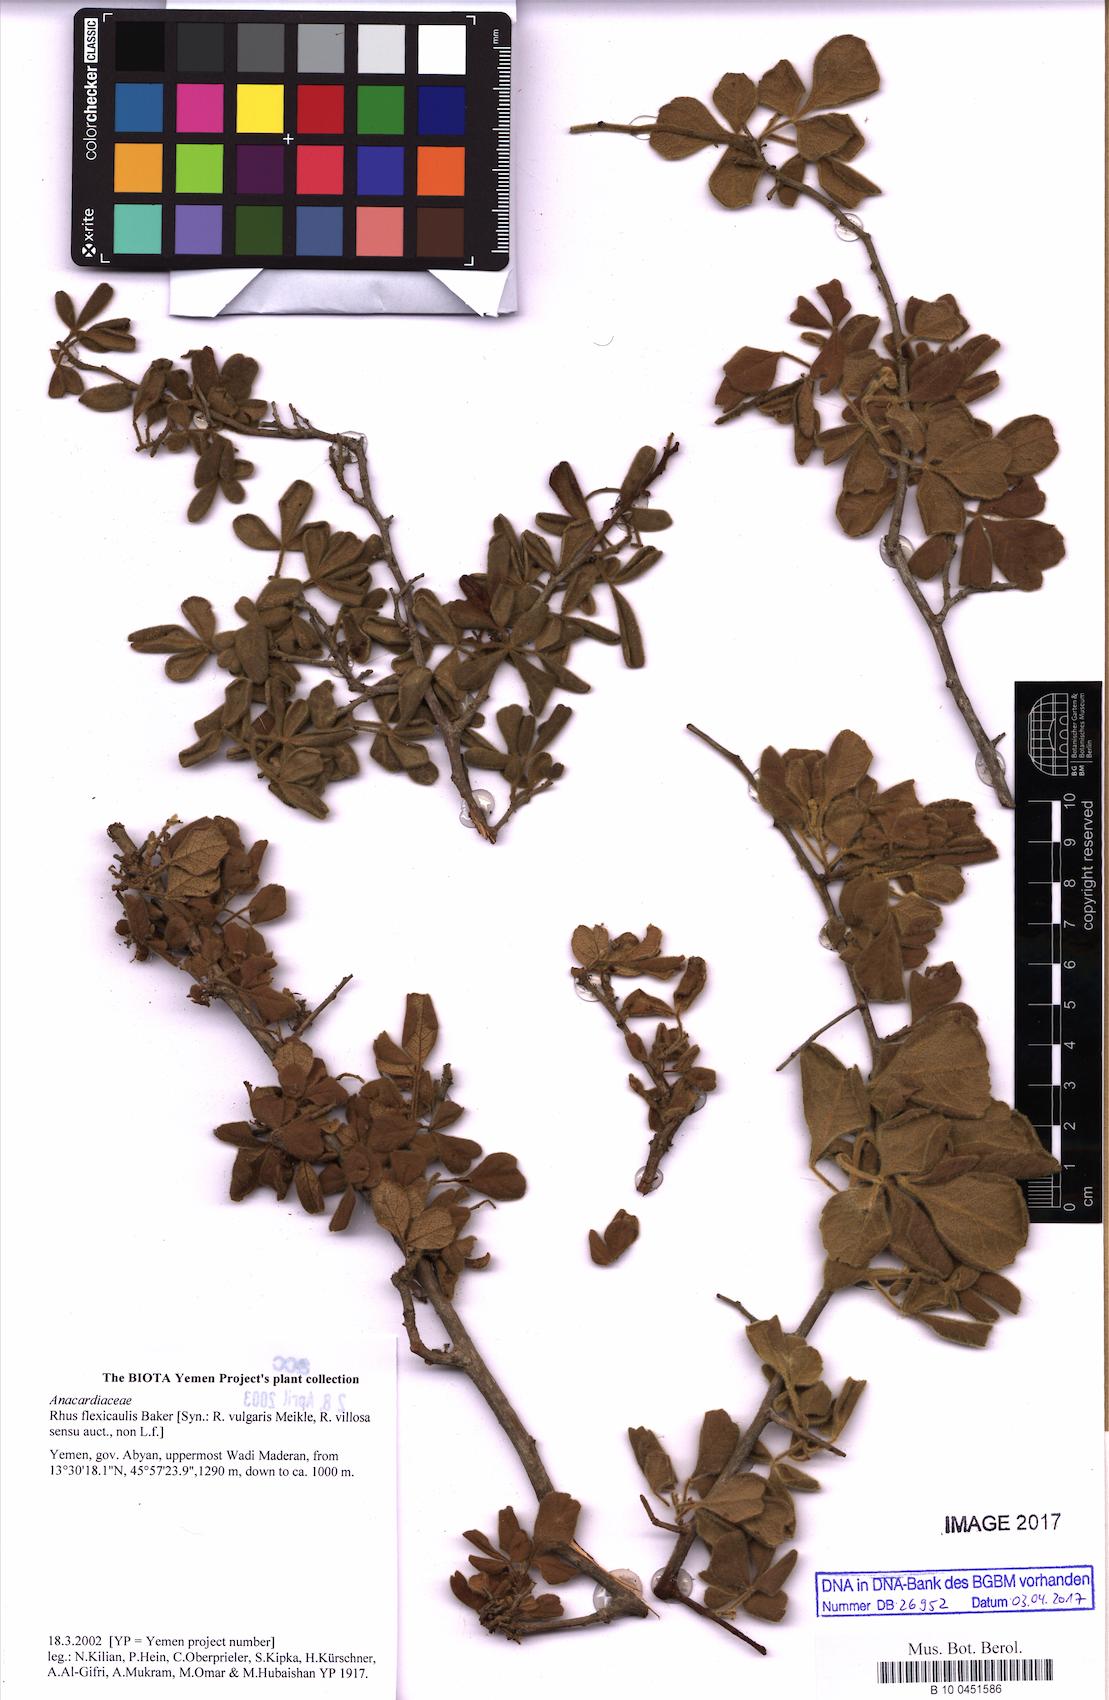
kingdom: Plantae
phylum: Tracheophyta
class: Magnoliopsida
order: Sapindales
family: Anacardiaceae
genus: Searsia
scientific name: Searsia flexicaulis
